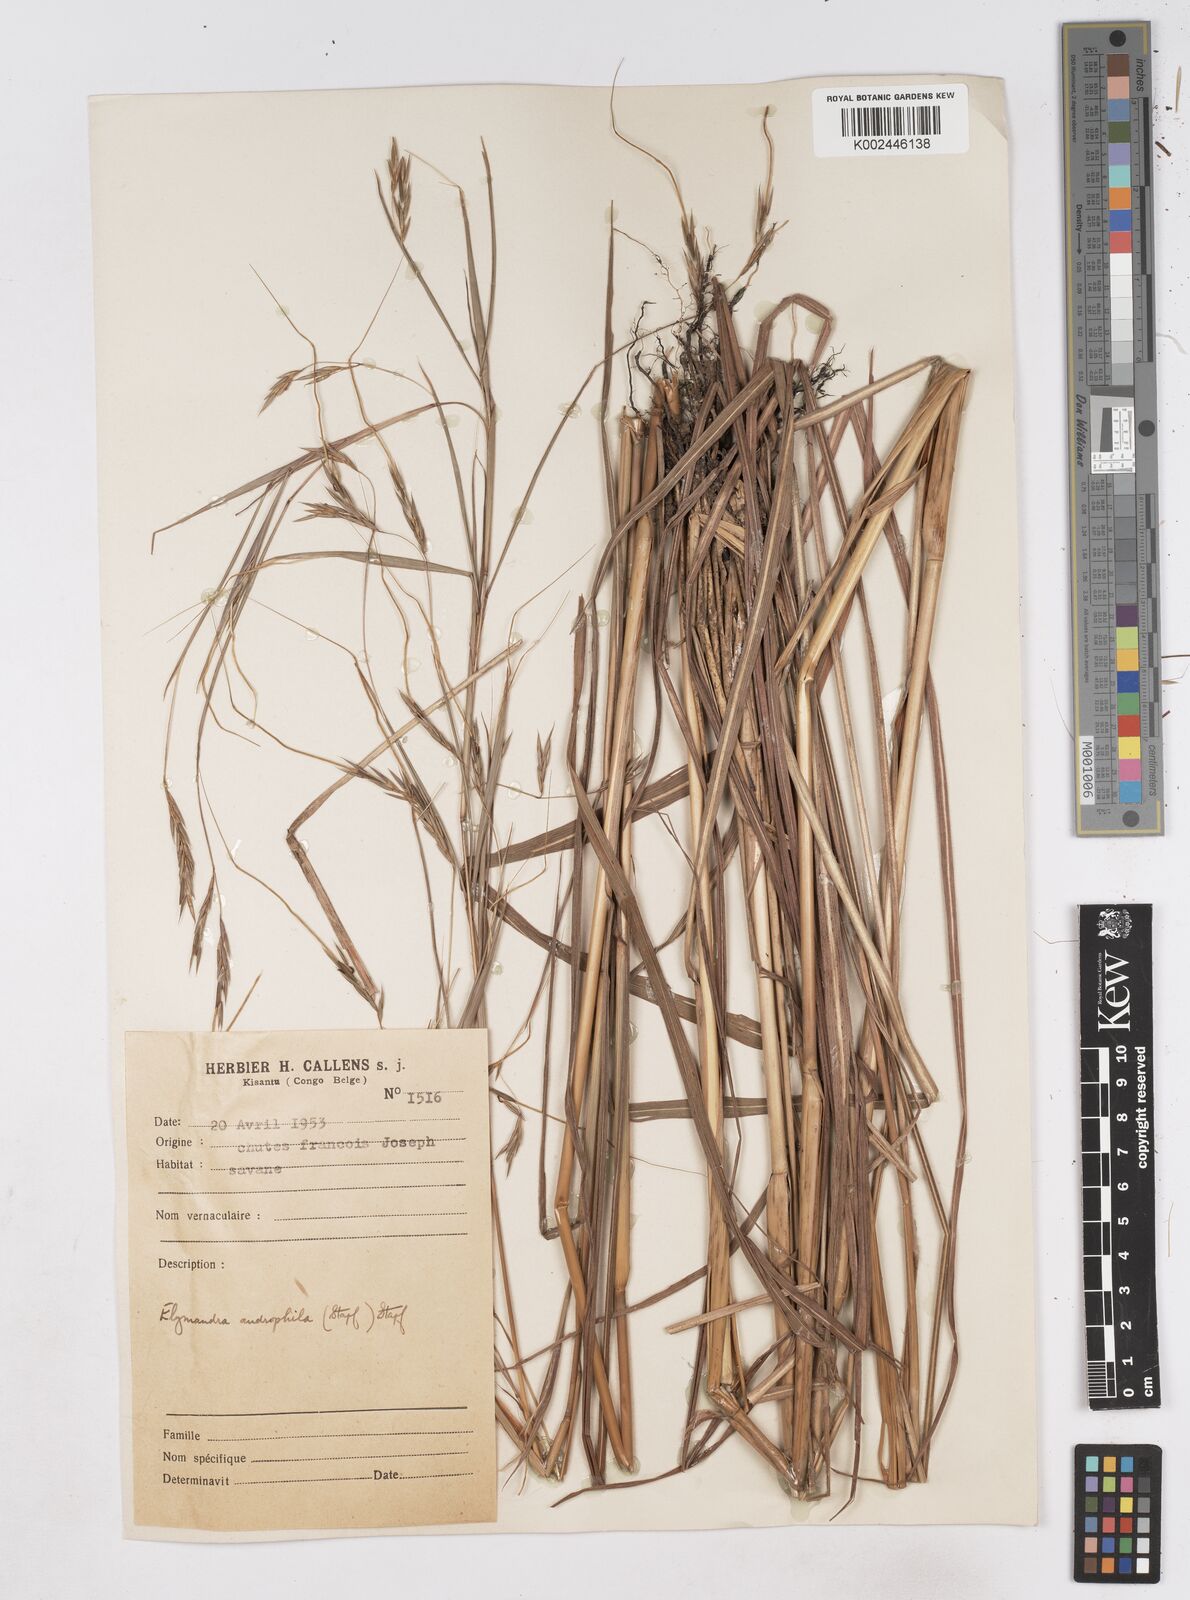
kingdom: Plantae
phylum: Tracheophyta
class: Liliopsida
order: Poales
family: Poaceae
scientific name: Poaceae
